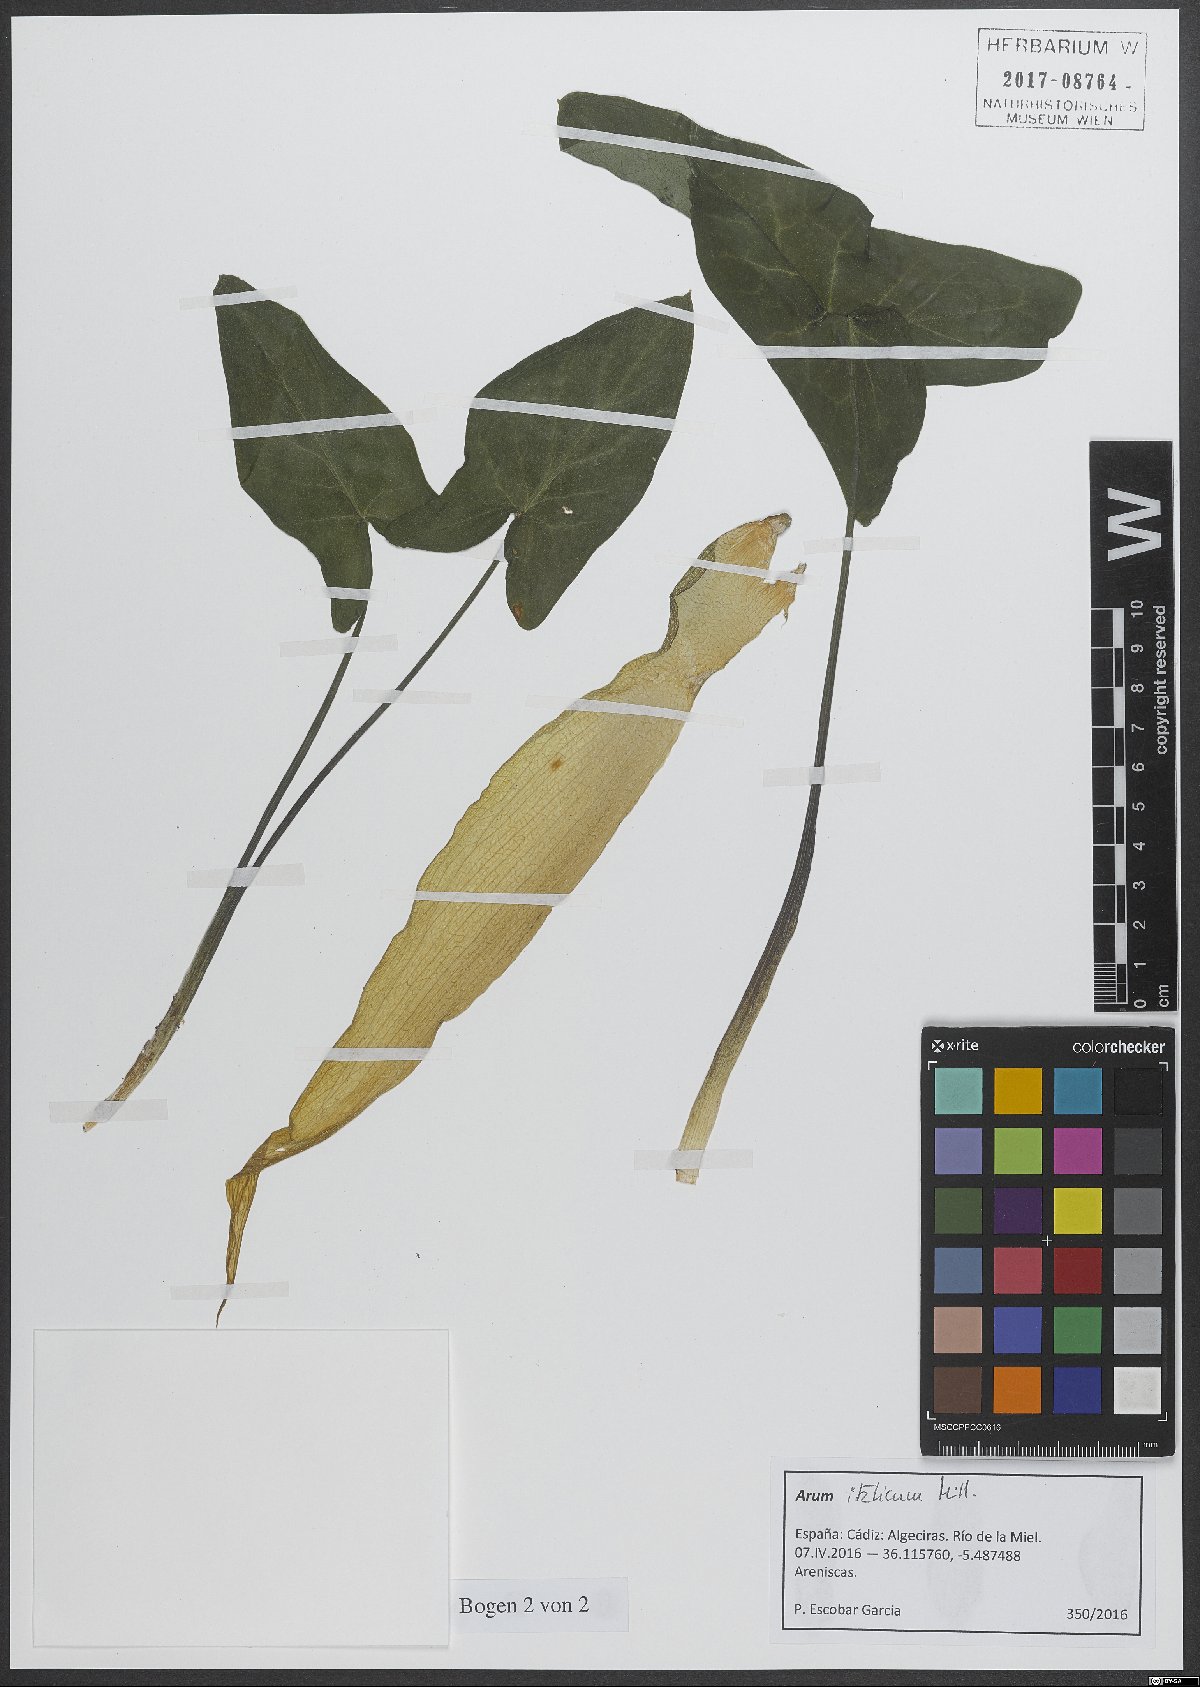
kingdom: Plantae
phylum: Tracheophyta
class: Liliopsida
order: Alismatales
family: Araceae
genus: Arum
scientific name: Arum italicum
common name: Italian lords-and-ladies
